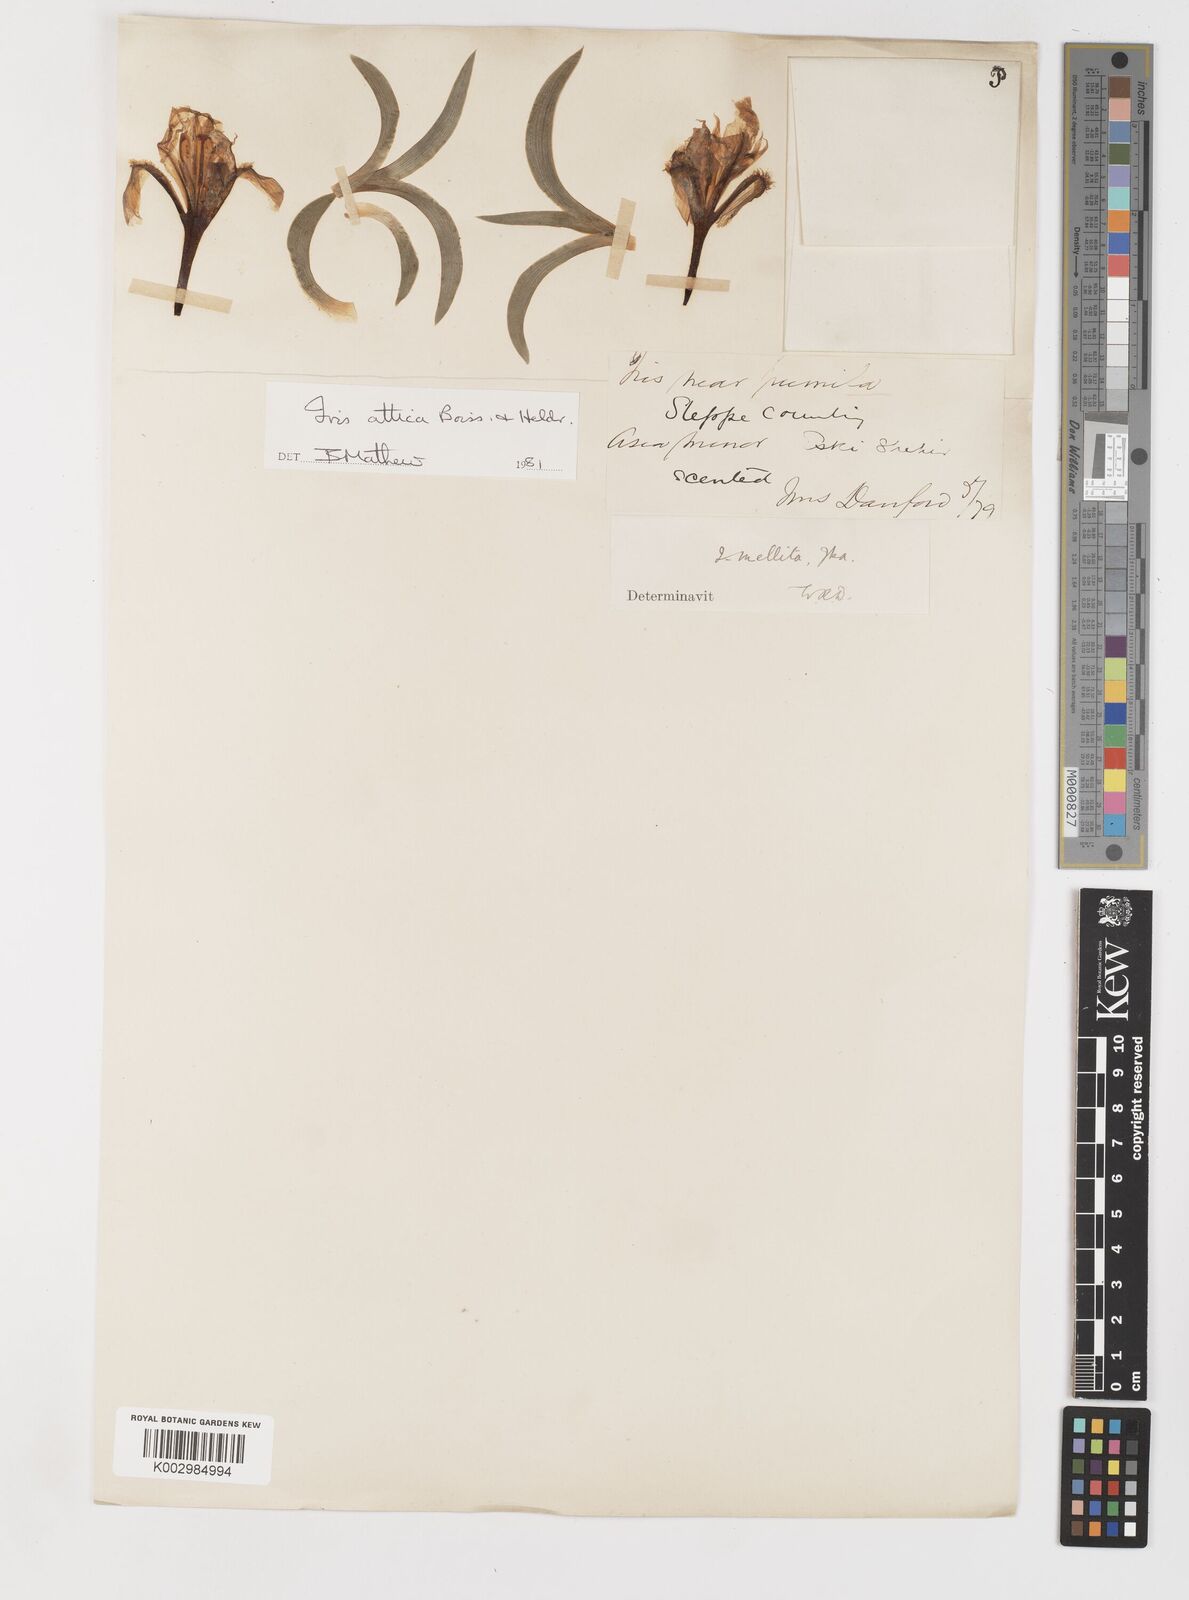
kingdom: Plantae
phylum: Tracheophyta
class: Liliopsida
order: Asparagales
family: Iridaceae
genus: Iris
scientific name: Iris pumila
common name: Dwarf iris
